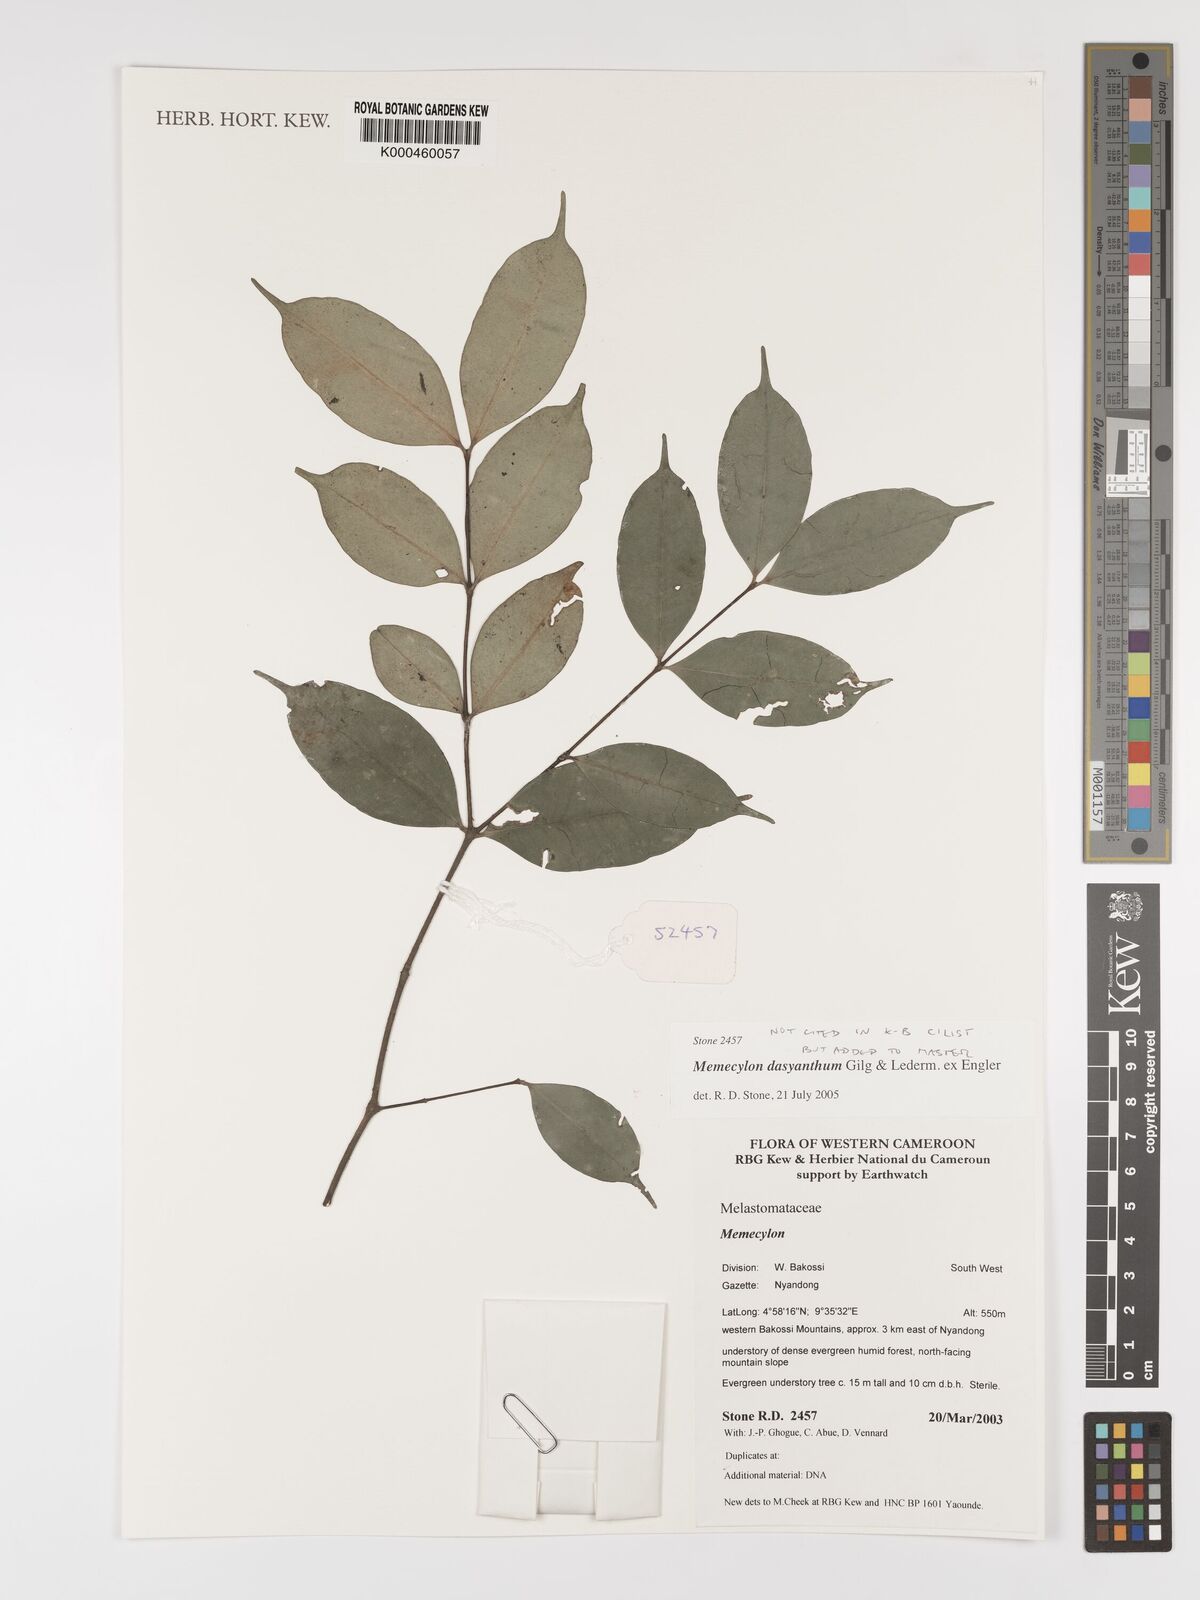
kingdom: Plantae
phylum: Tracheophyta
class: Magnoliopsida
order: Myrtales
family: Melastomataceae
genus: Memecylon
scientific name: Memecylon dasyanthum
